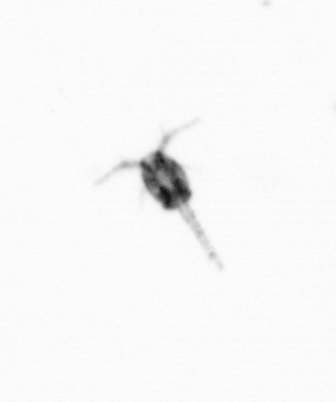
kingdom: Animalia
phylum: Arthropoda
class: Copepoda
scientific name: Copepoda
